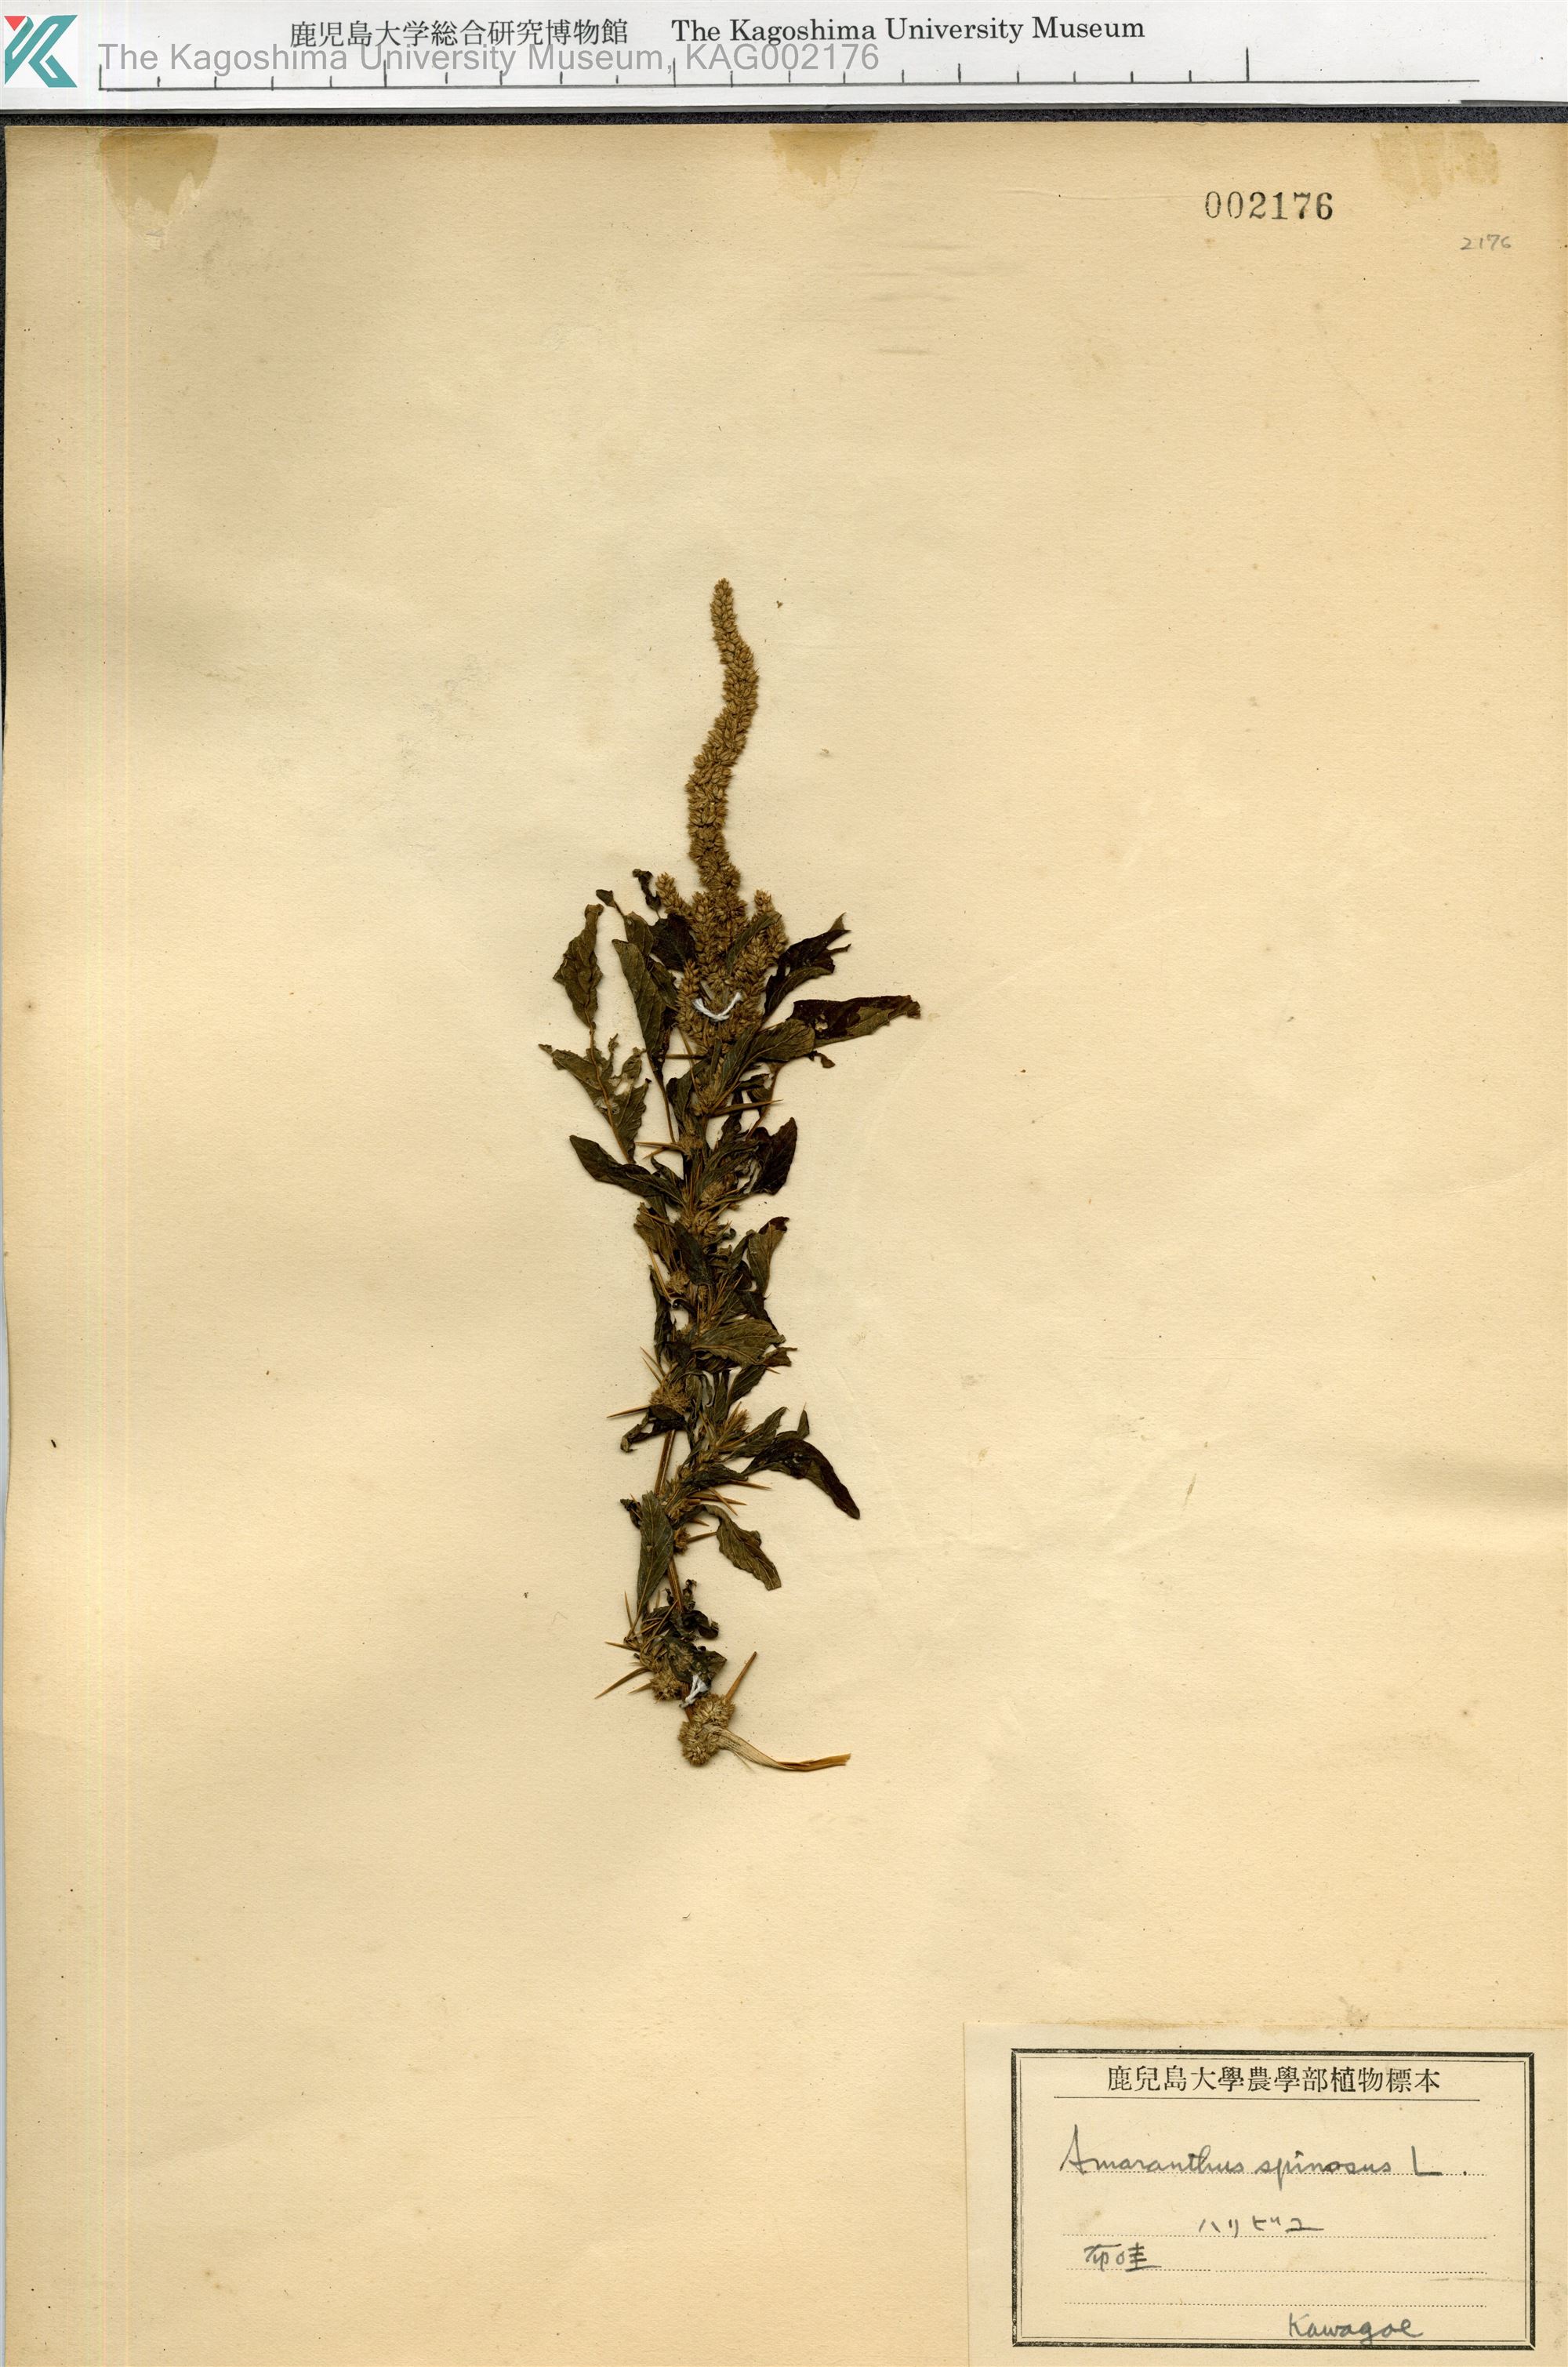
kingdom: Plantae
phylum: Tracheophyta
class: Magnoliopsida
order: Caryophyllales
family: Amaranthaceae
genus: Amaranthus
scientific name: Amaranthus spinosus
